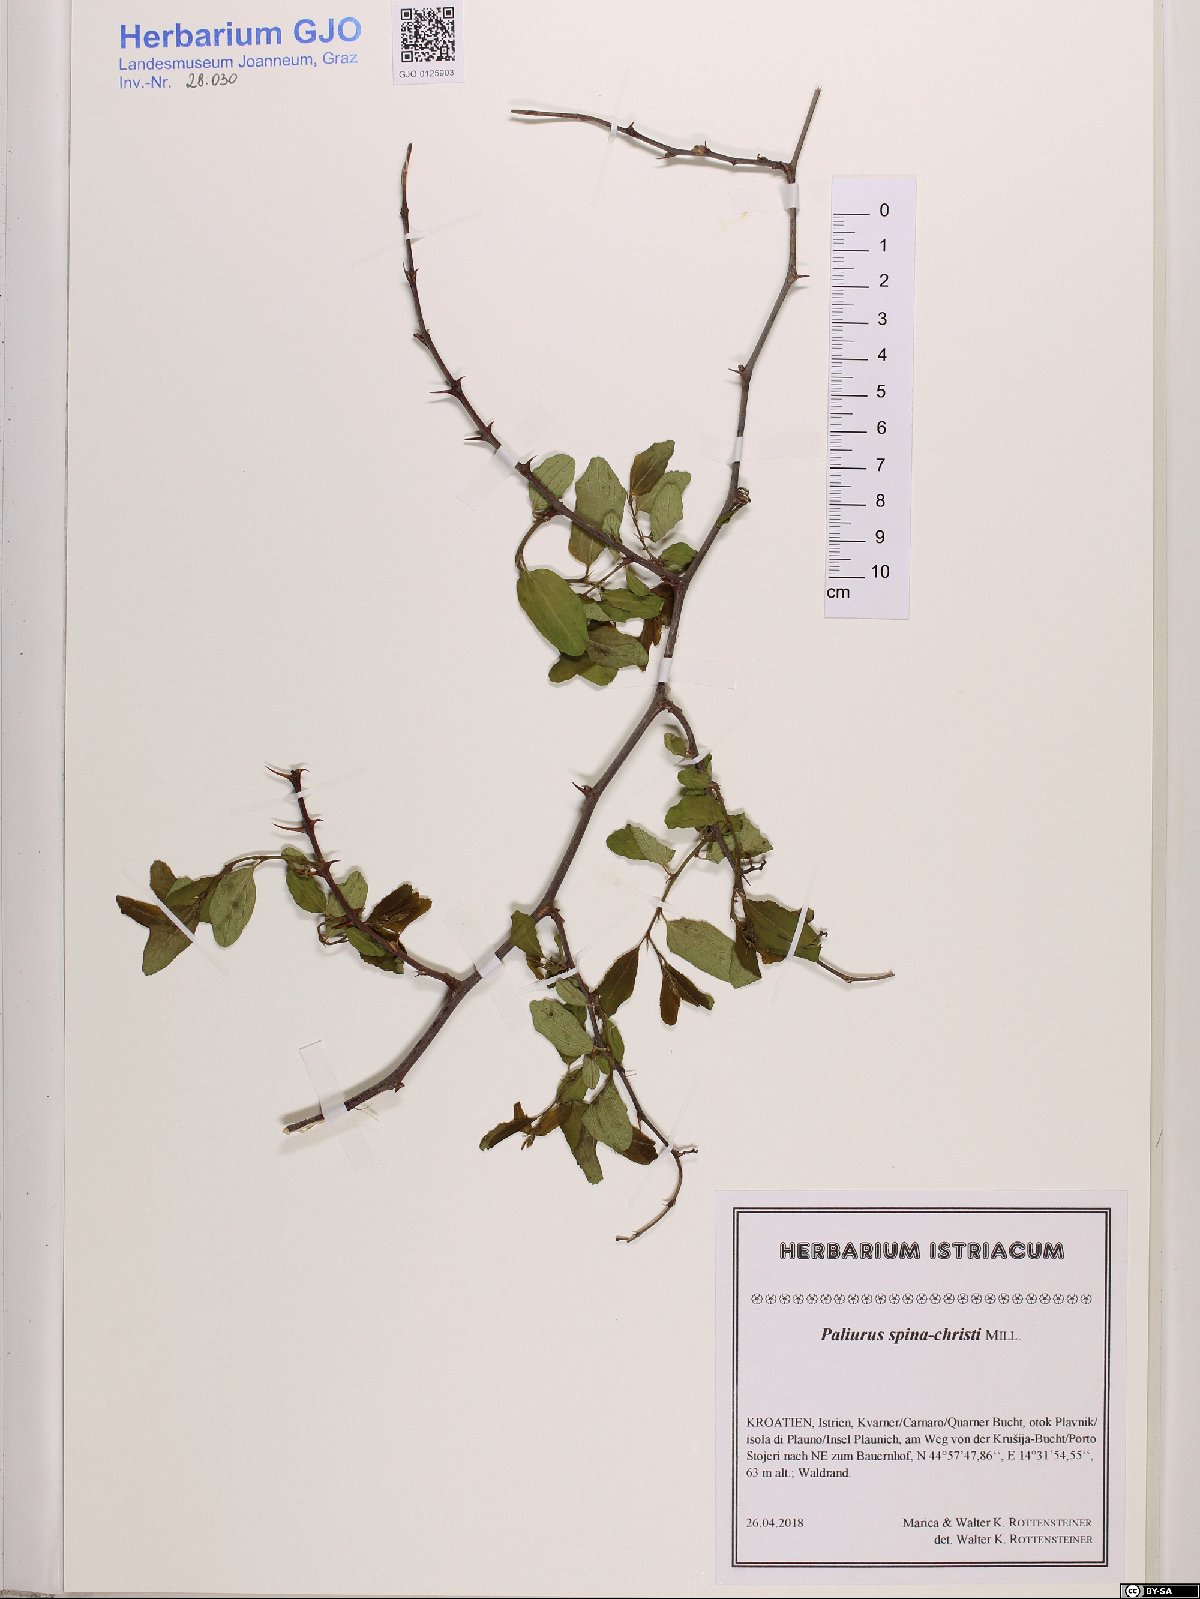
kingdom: Plantae
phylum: Tracheophyta
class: Magnoliopsida
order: Rosales
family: Rhamnaceae
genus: Paliurus
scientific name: Paliurus spina-christi
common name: Jeruselem thorn
